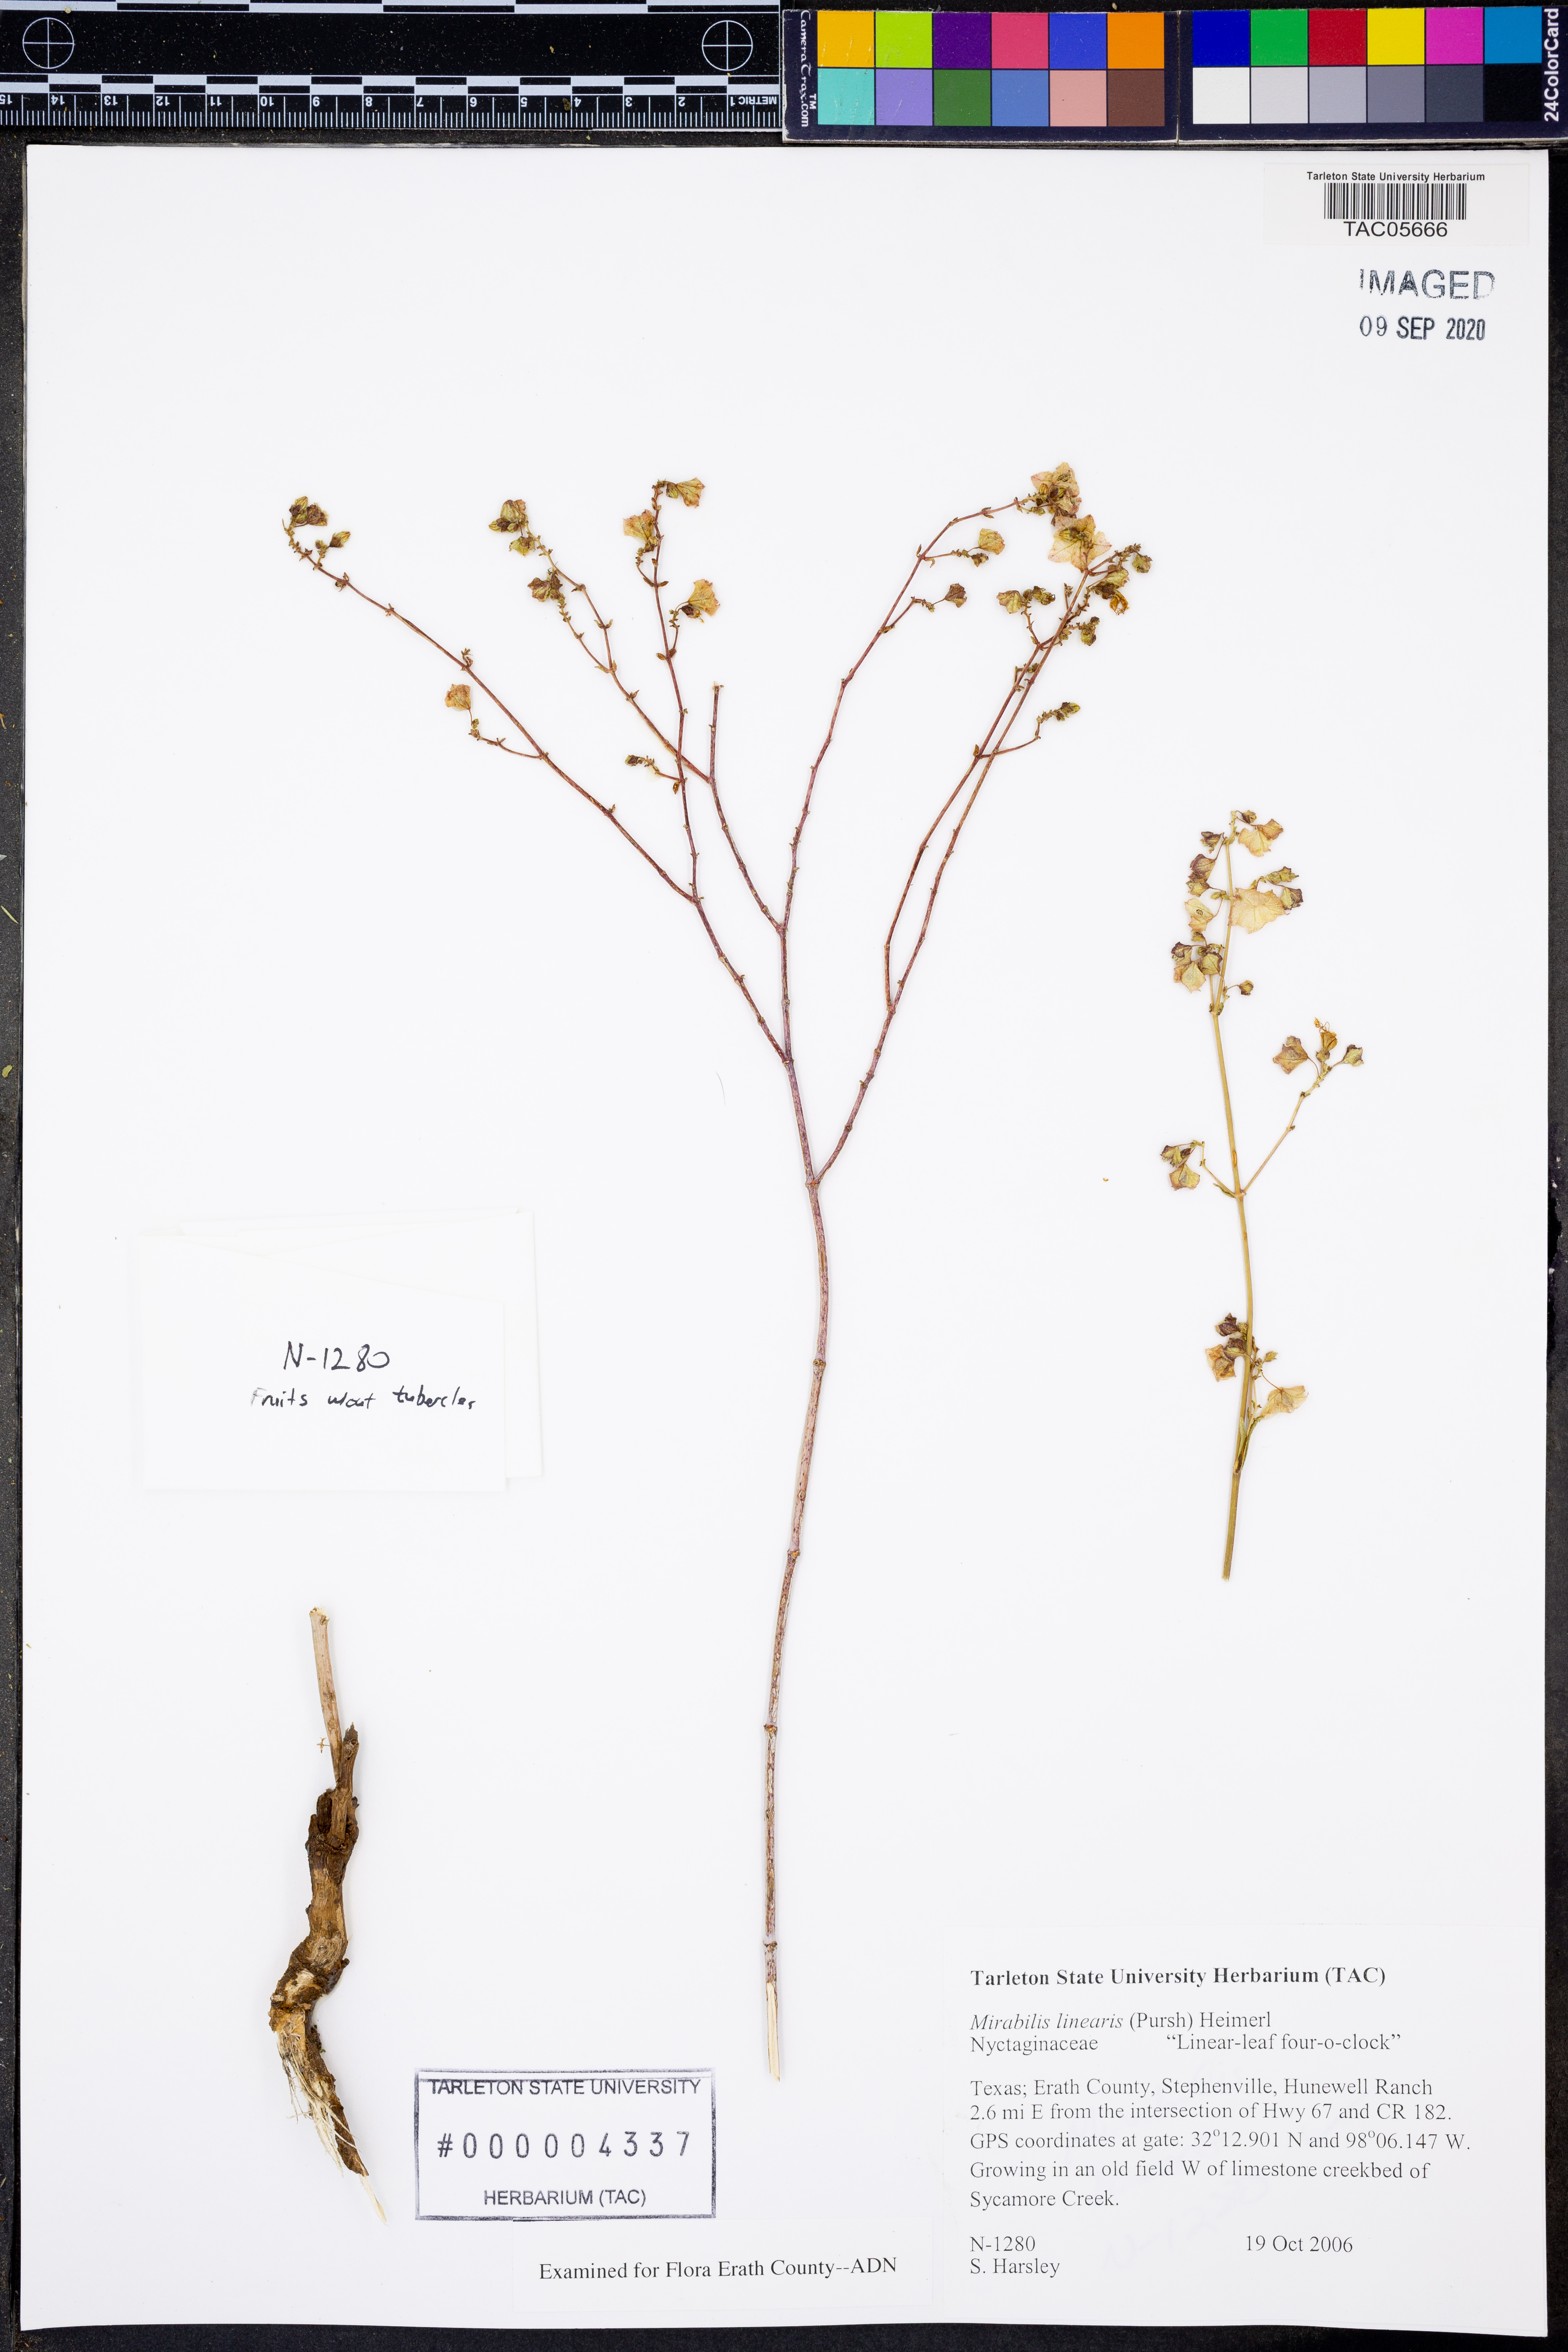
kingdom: Plantae
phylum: Tracheophyta
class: Magnoliopsida
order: Caryophyllales
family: Nyctaginaceae
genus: Mirabilis
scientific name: Mirabilis linearis
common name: Linear-leaved four-o'clock
